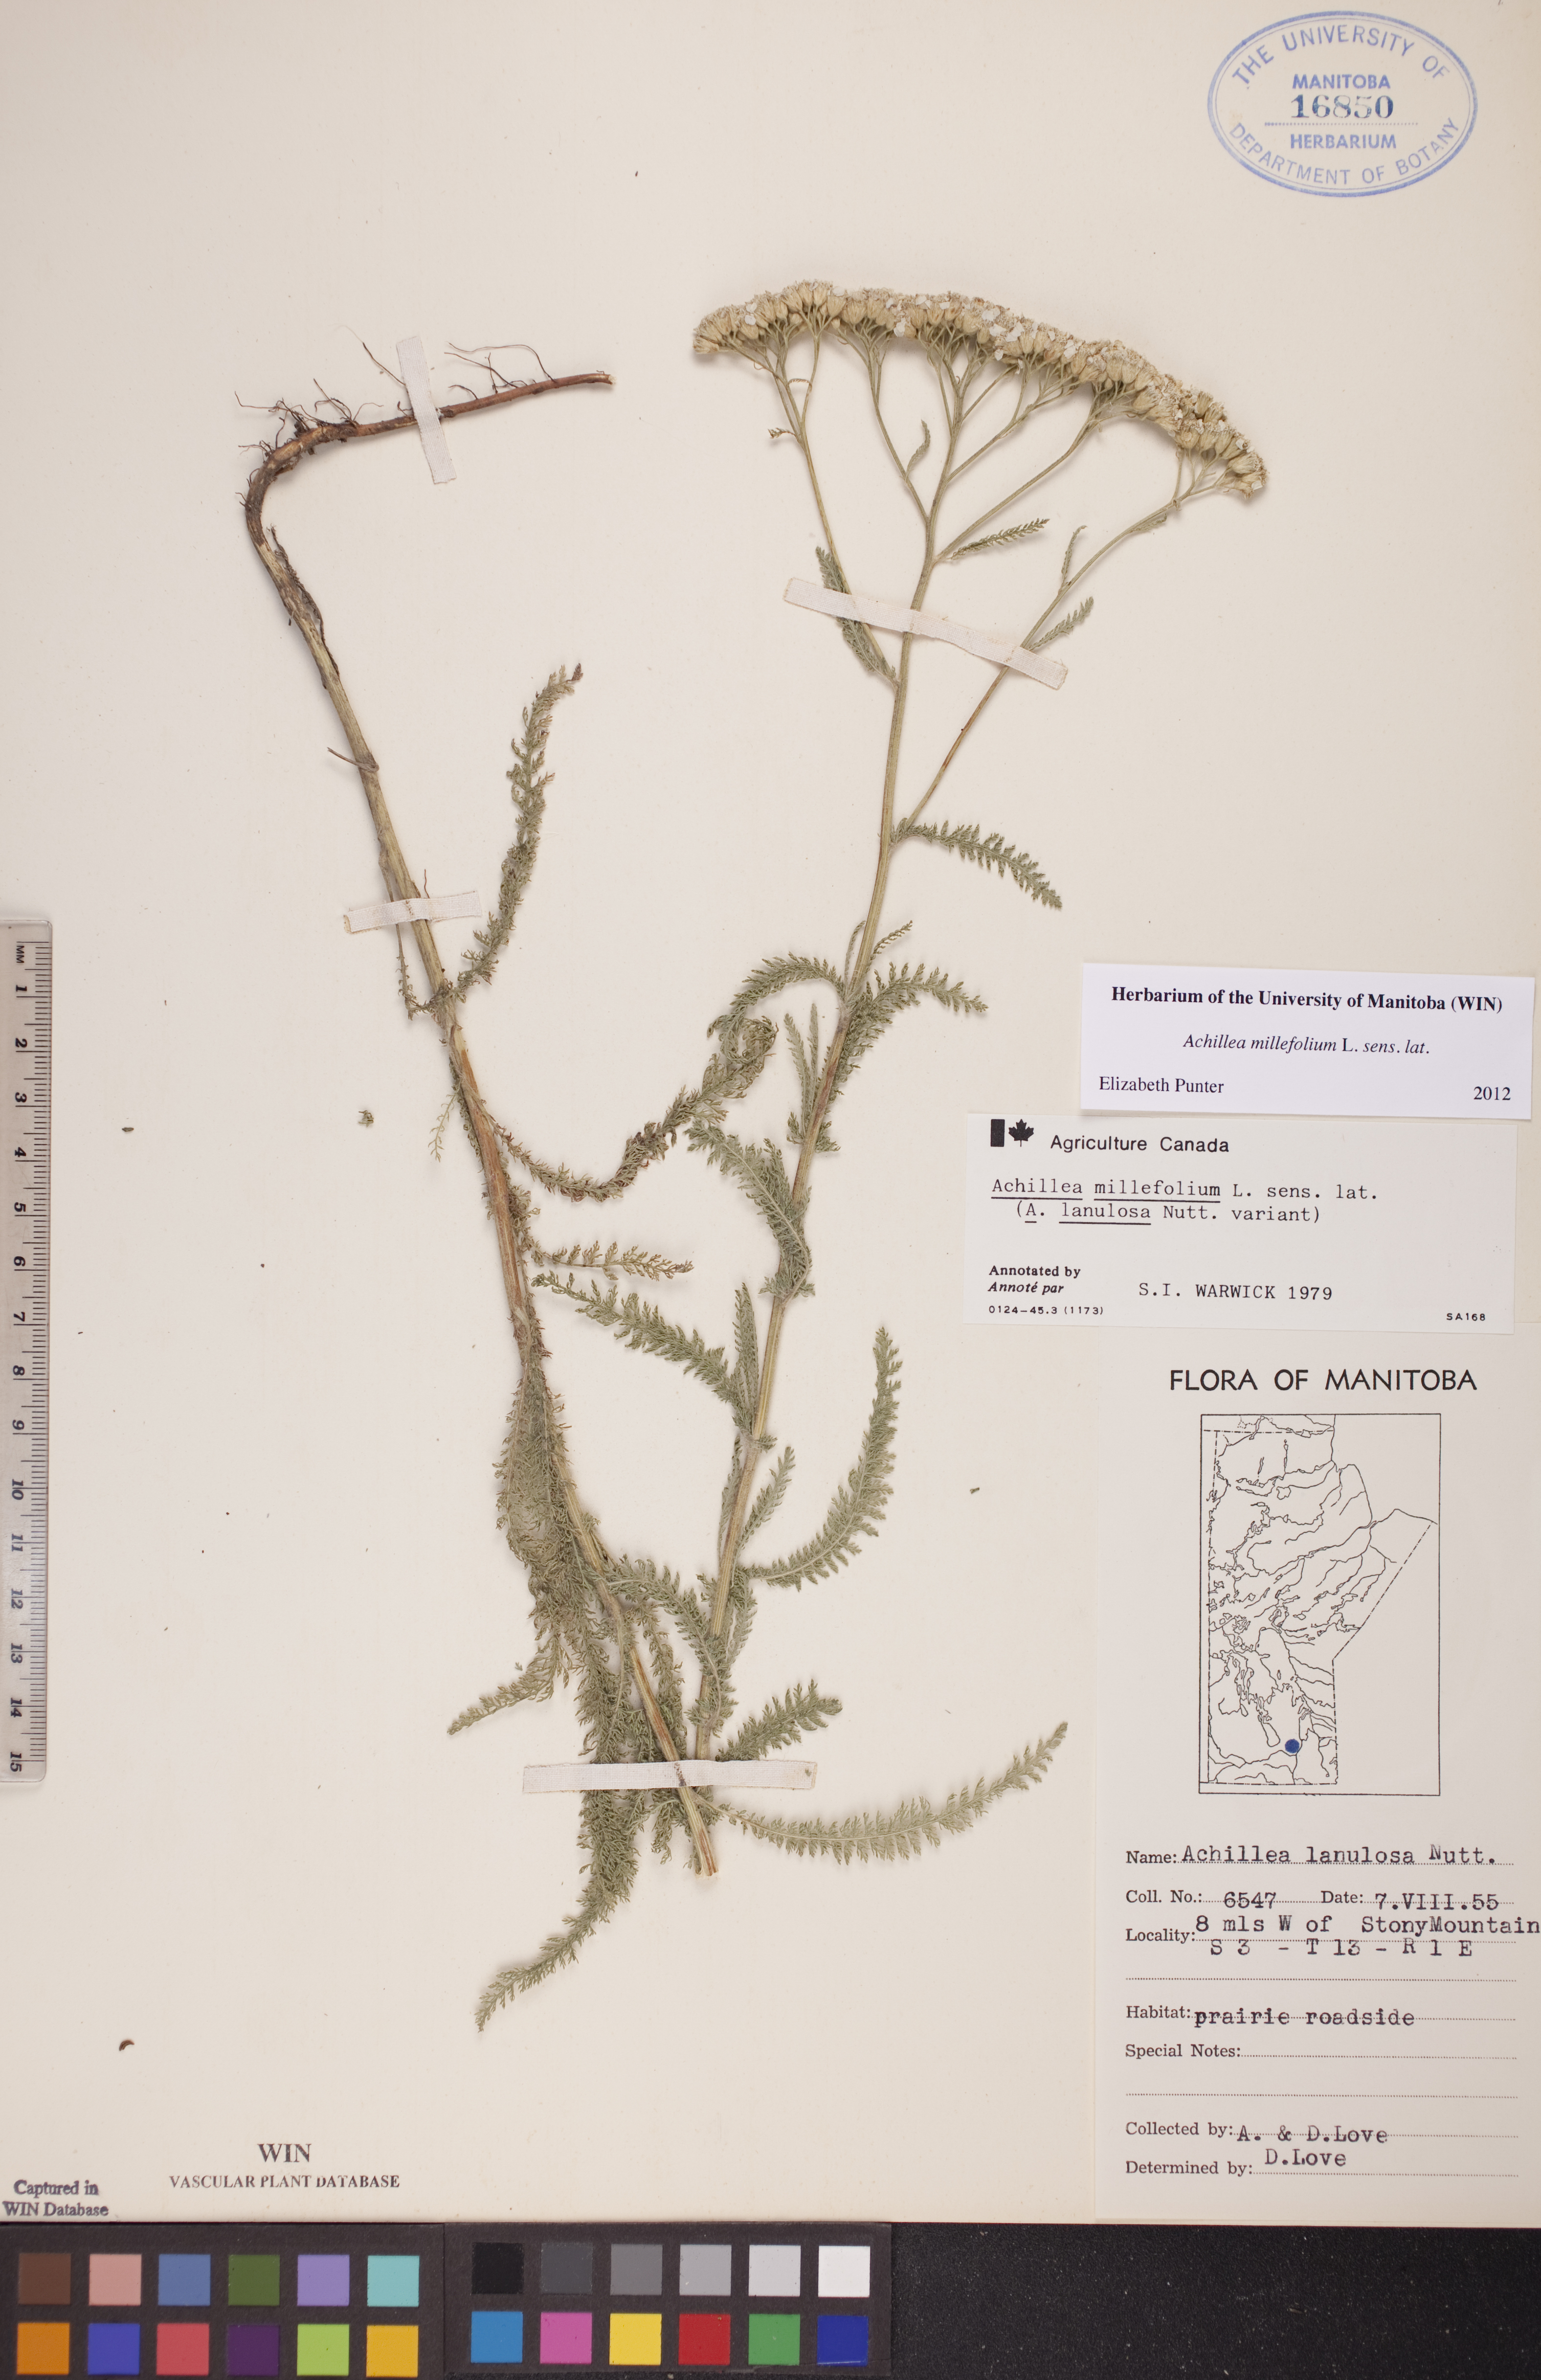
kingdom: Plantae
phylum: Tracheophyta
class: Magnoliopsida
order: Asterales
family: Asteraceae
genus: Achillea
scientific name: Achillea millefolium
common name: Yarrow
